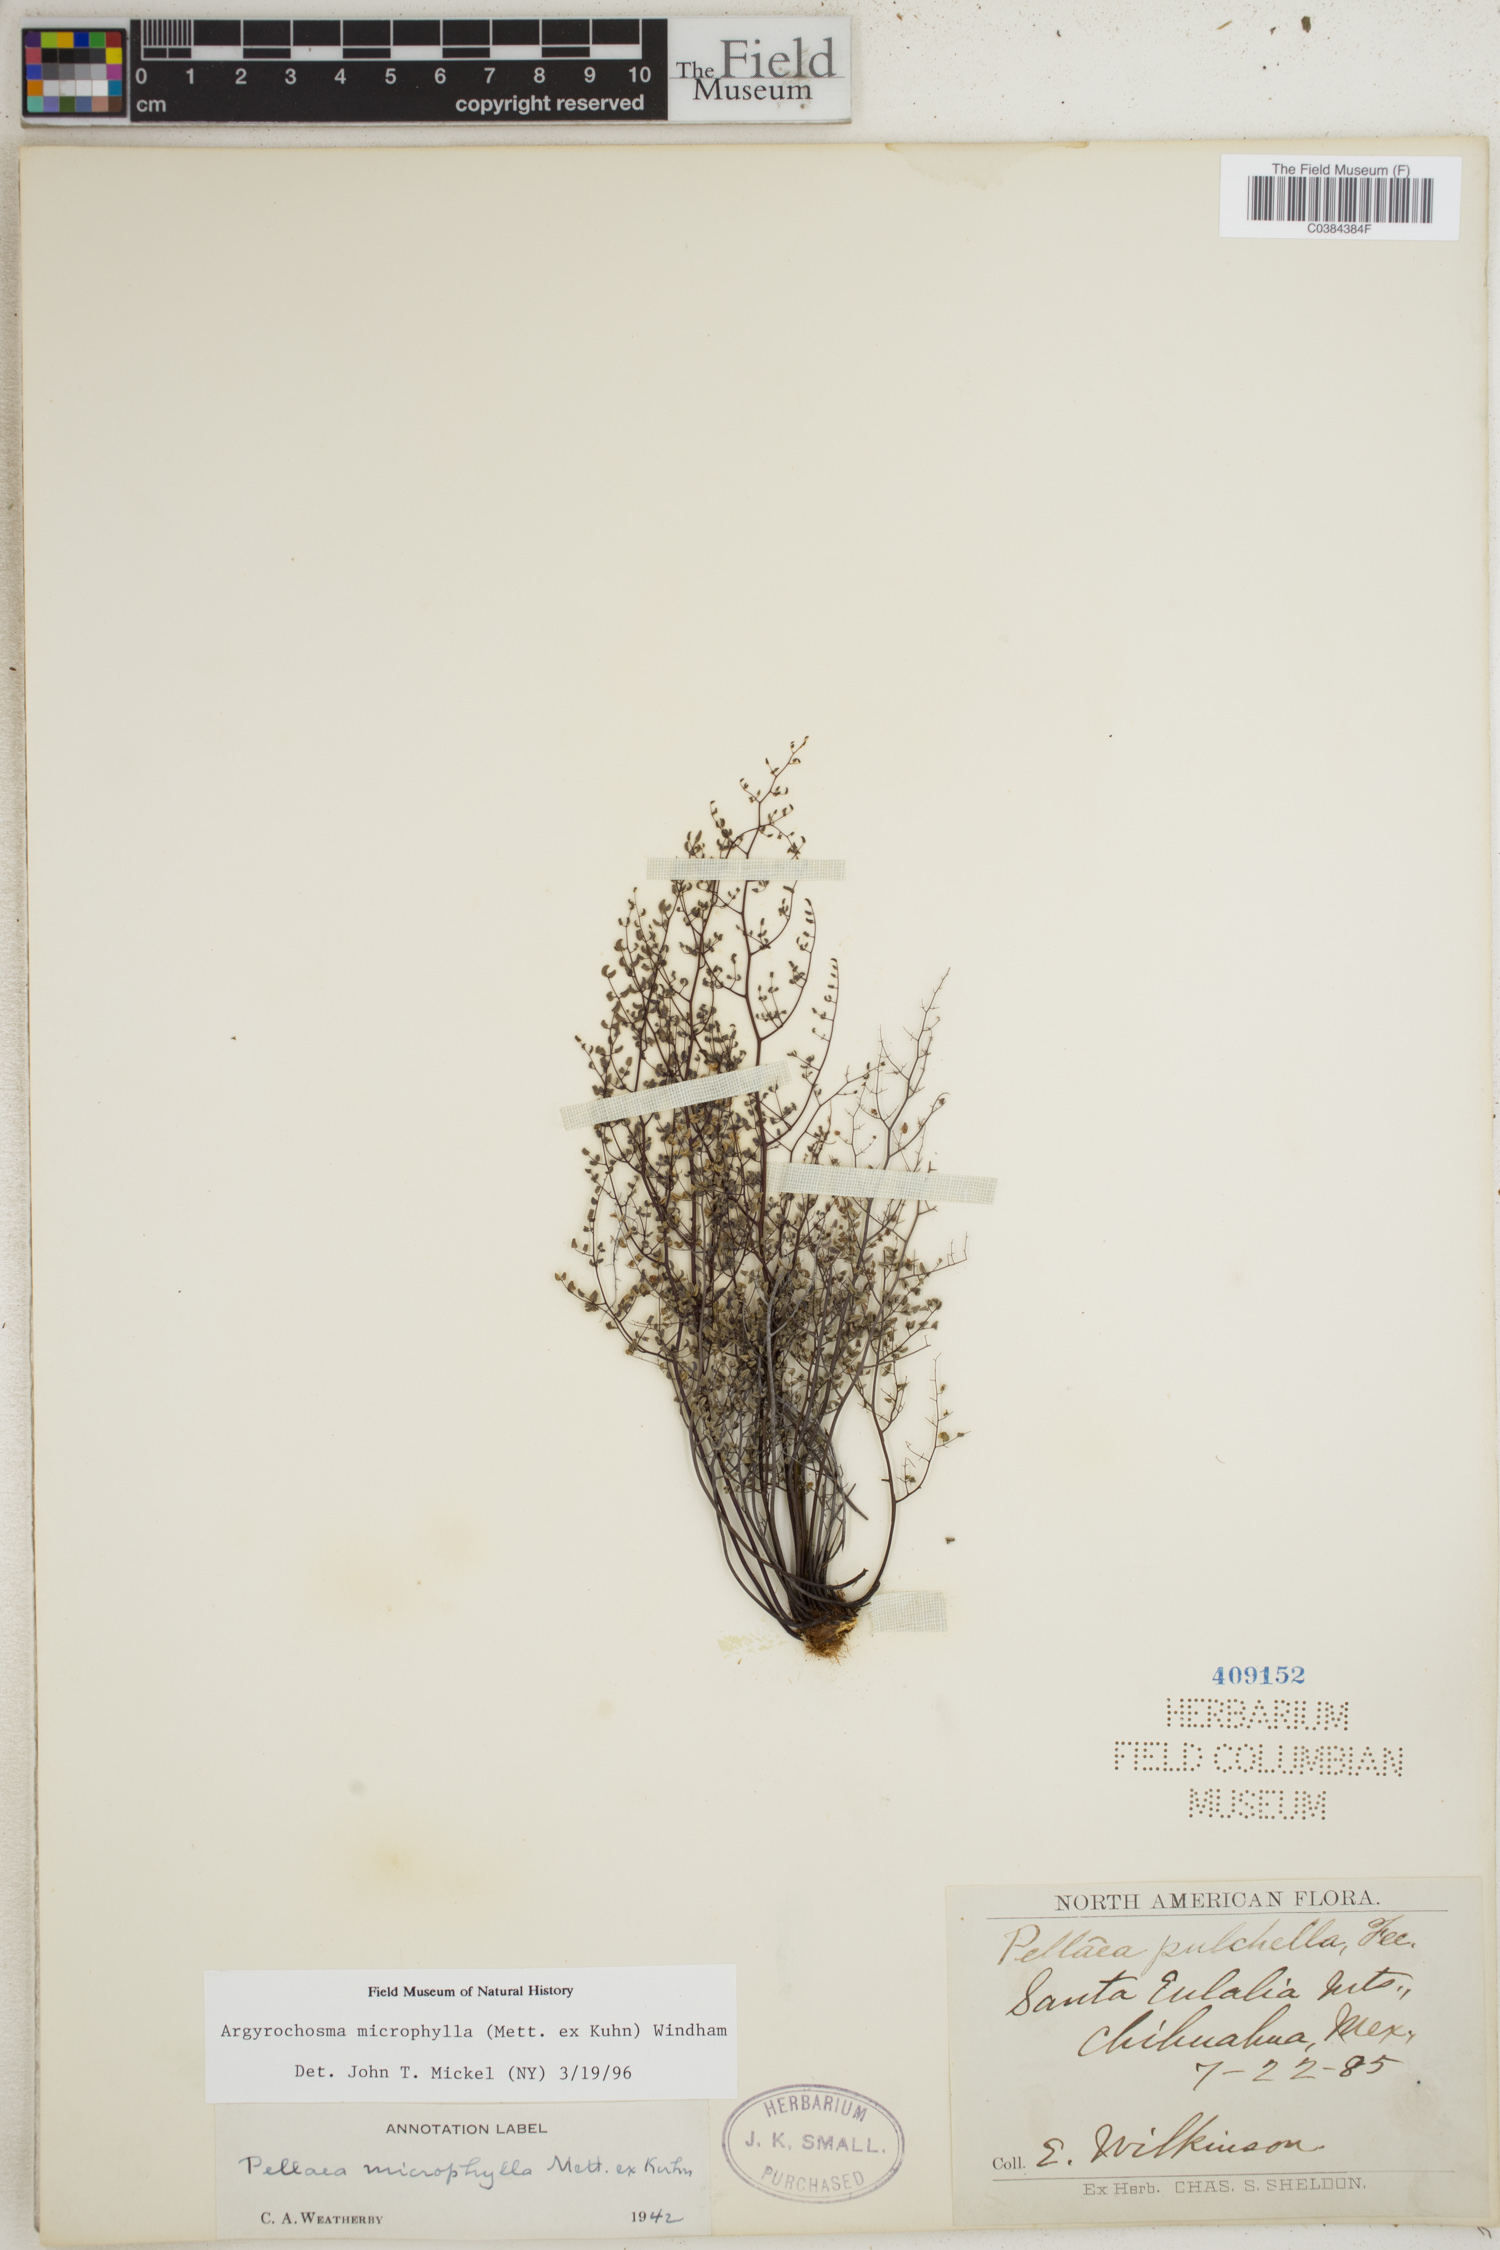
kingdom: Plantae
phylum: Tracheophyta
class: Polypodiopsida
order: Polypodiales
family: Pteridaceae
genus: Argyrochosma
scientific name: Argyrochosma microphylla
